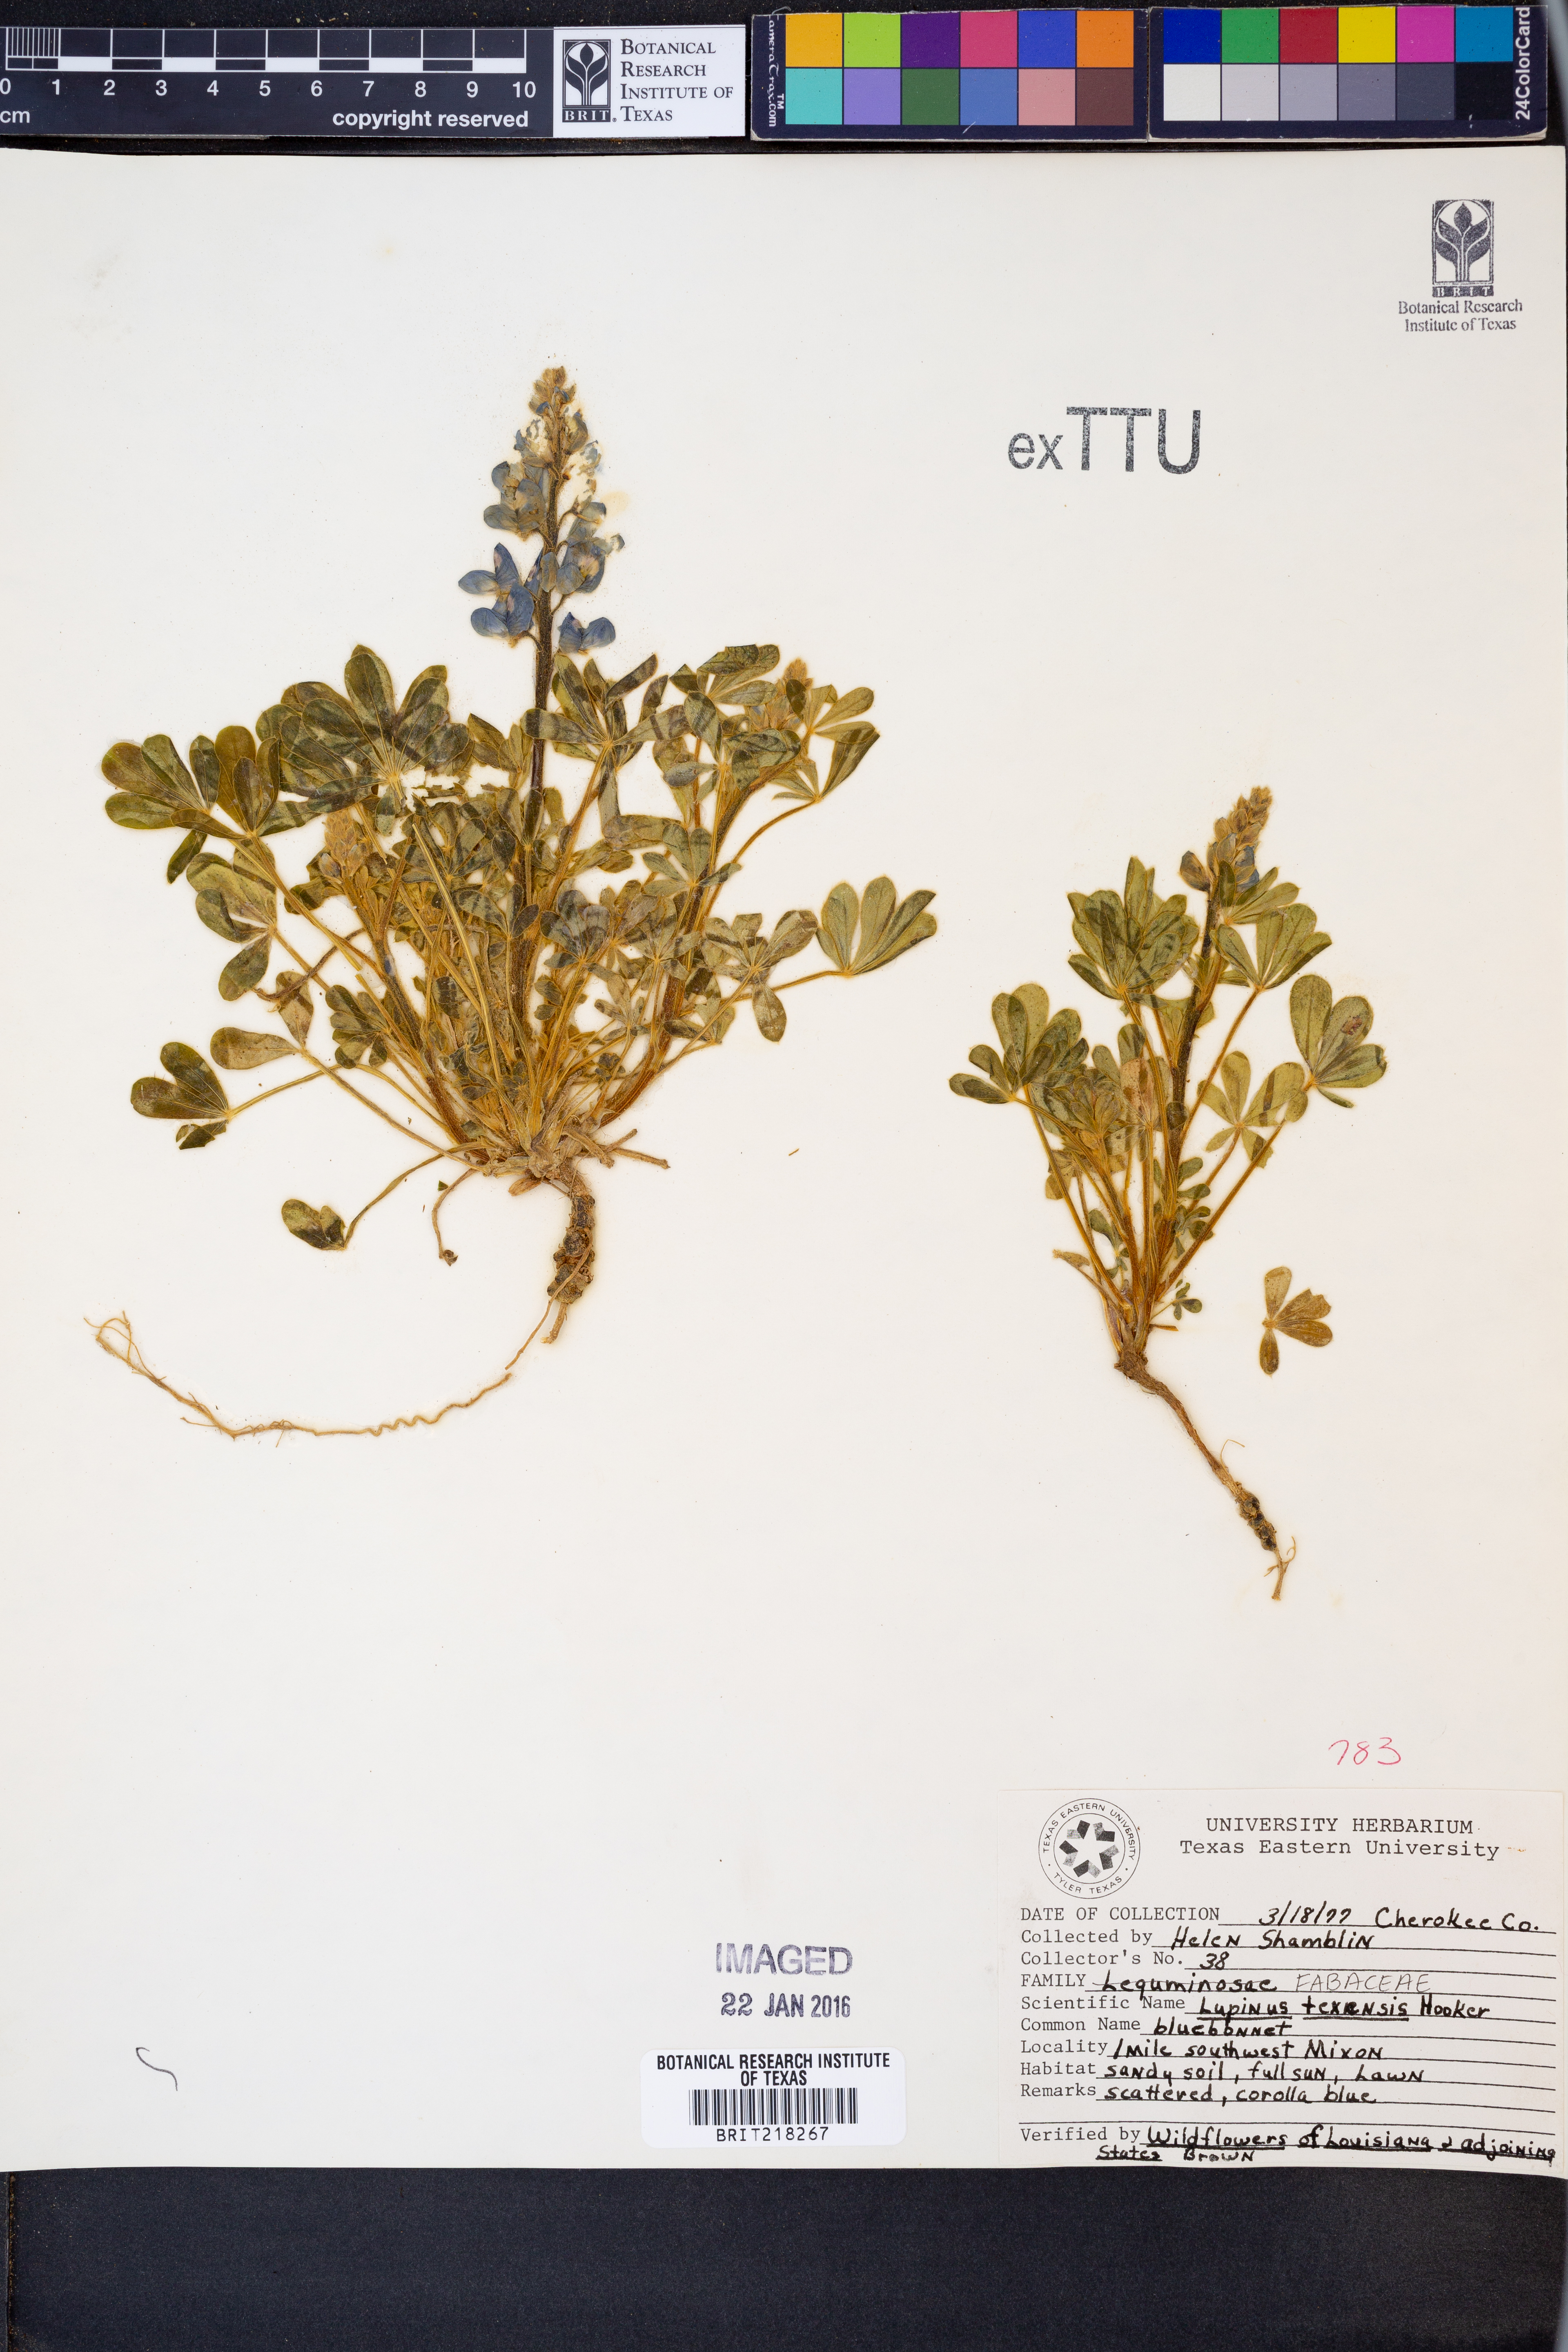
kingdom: Plantae
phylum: Tracheophyta
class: Magnoliopsida
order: Fabales
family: Fabaceae
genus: Lupinus
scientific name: Lupinus texensis
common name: Texas bluebonnet
